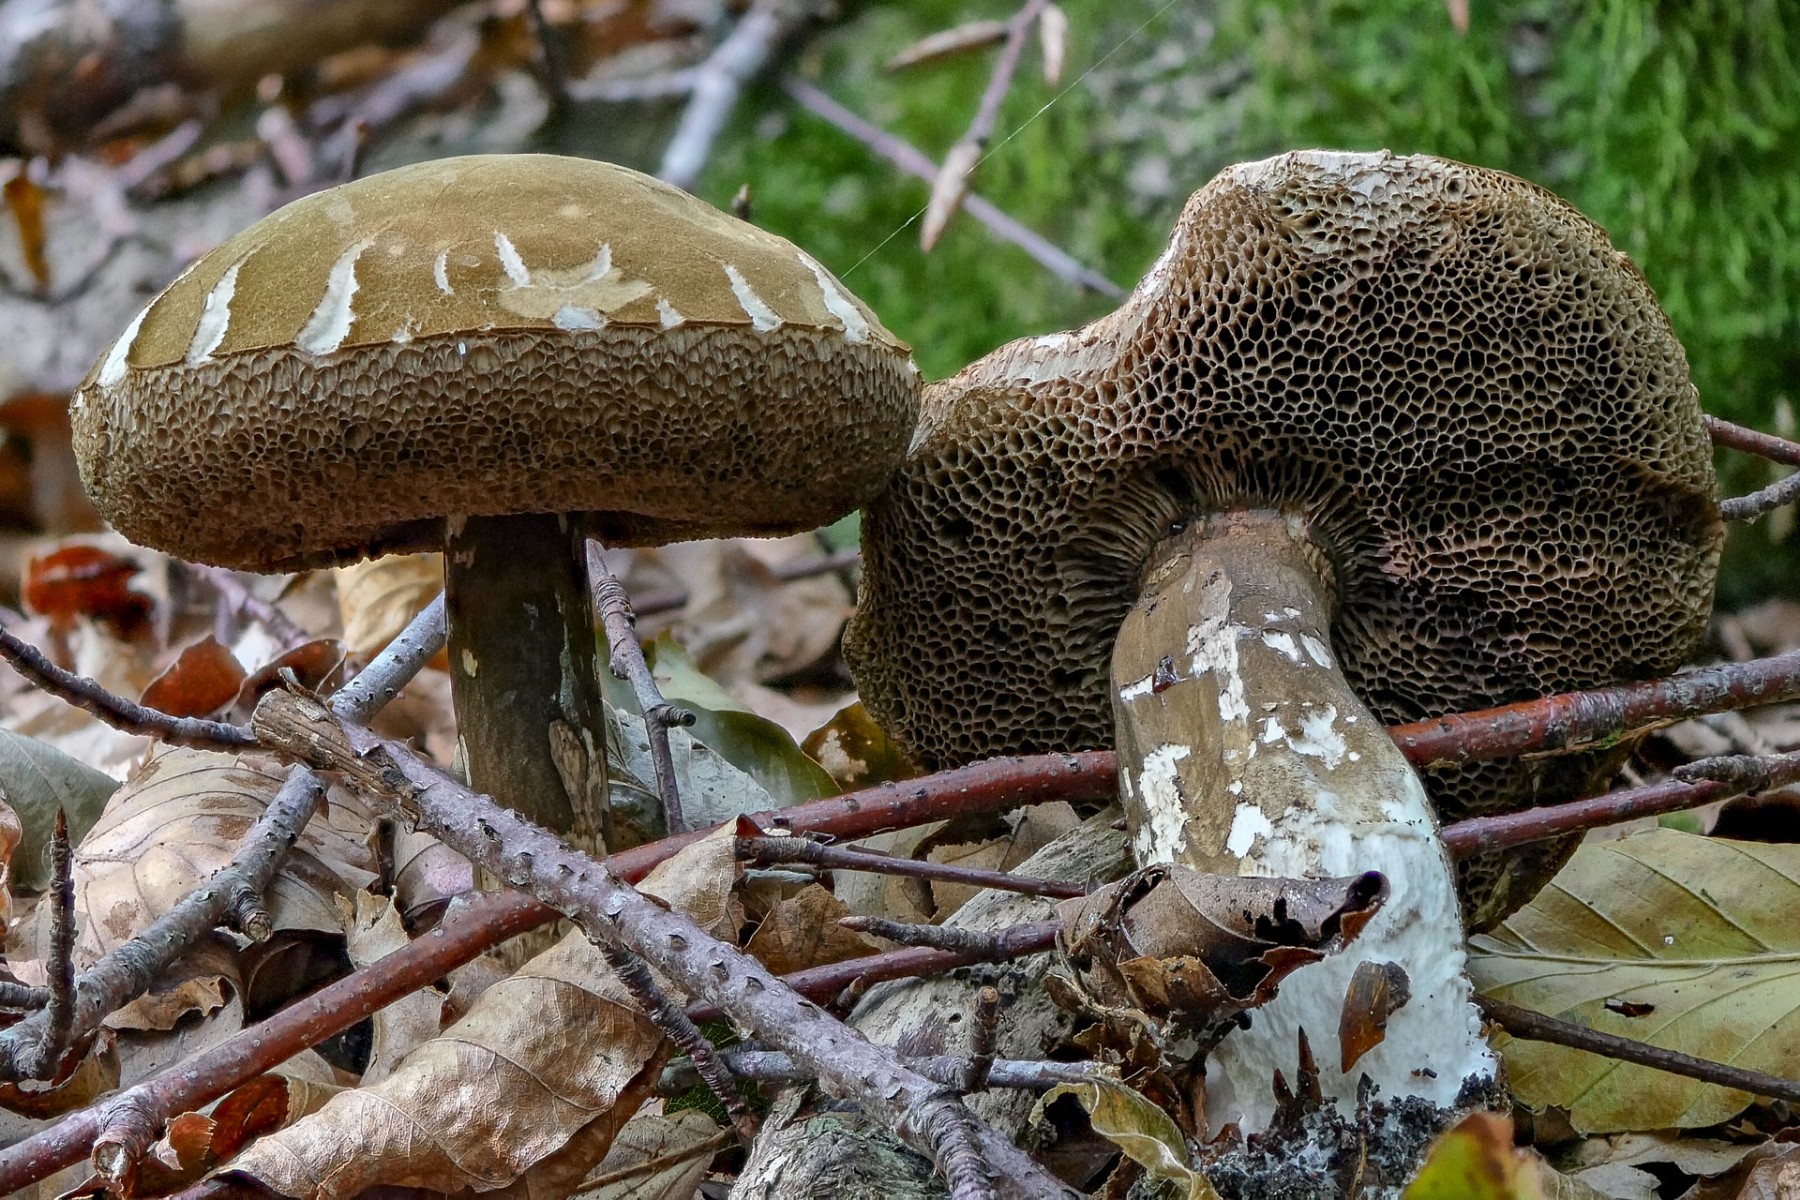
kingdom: Fungi
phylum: Basidiomycota
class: Agaricomycetes
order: Boletales
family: Boletaceae
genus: Porphyrellus
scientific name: Porphyrellus porphyrosporus
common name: sodrørhat
